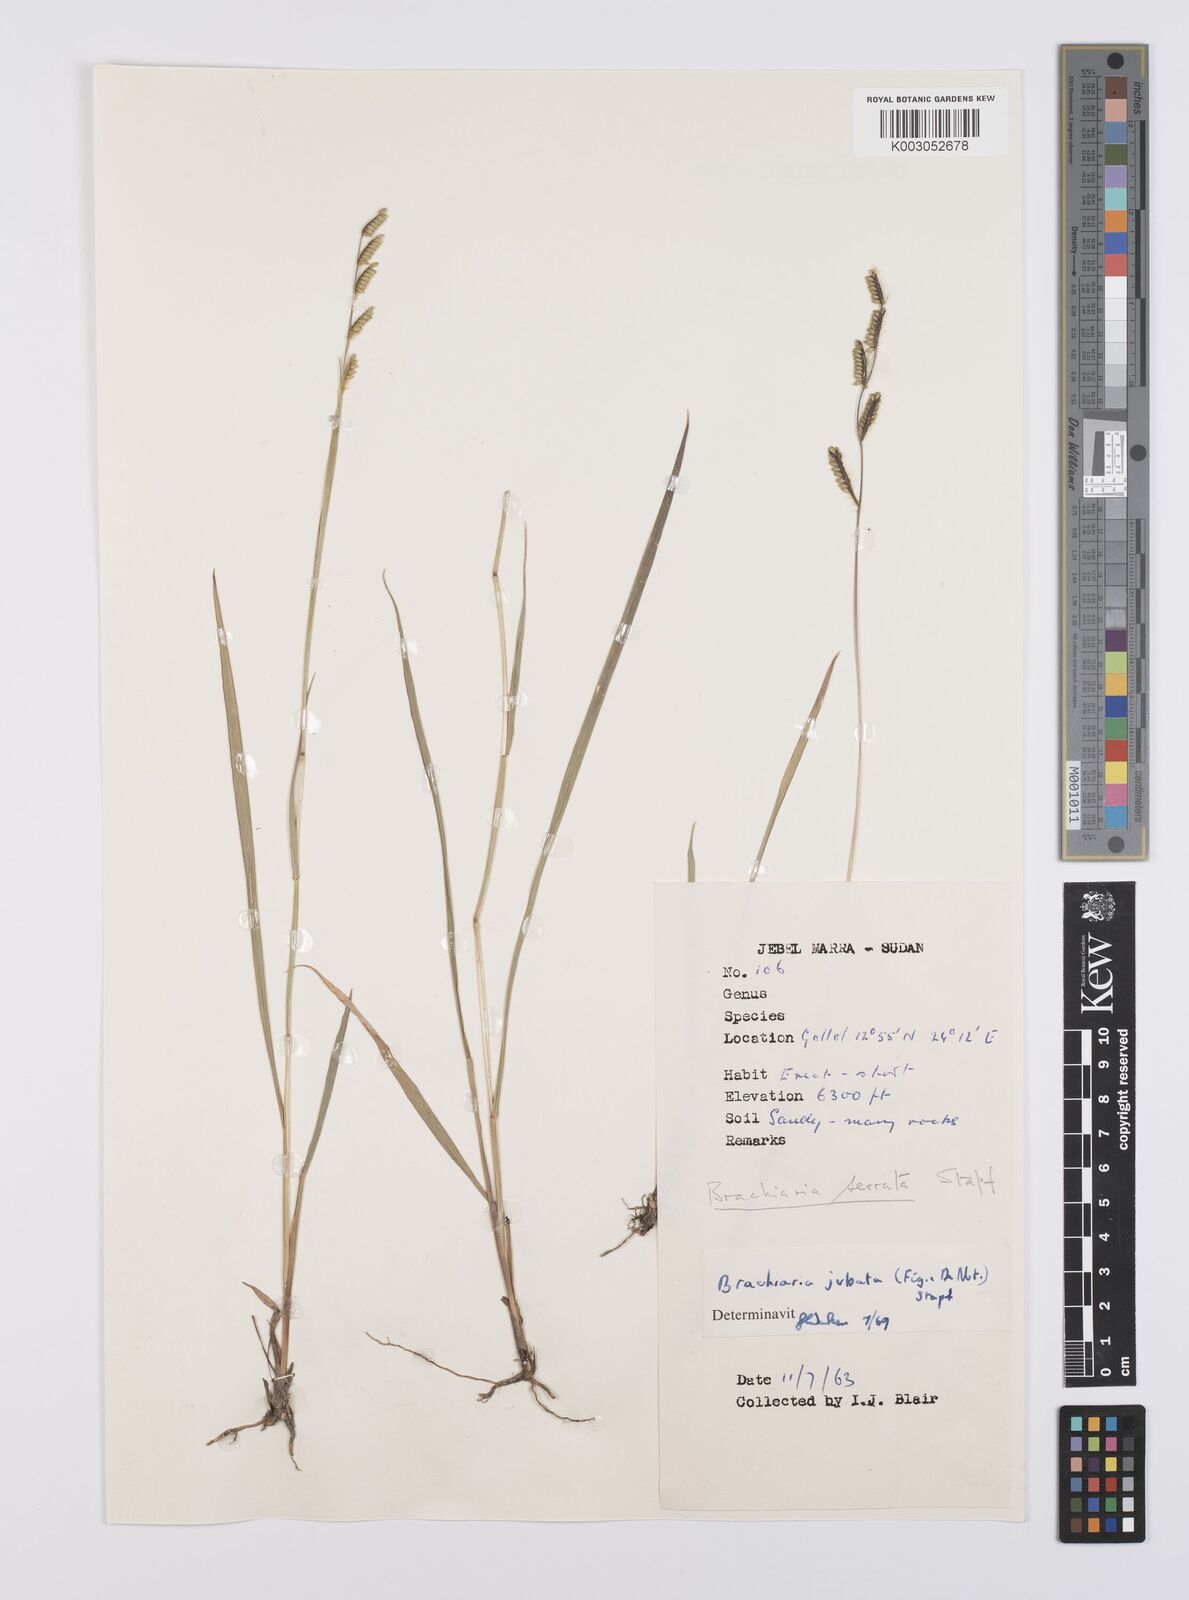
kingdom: Plantae
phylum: Tracheophyta
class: Liliopsida
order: Poales
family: Poaceae
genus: Urochloa
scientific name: Urochloa jubata
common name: Buffalograss
